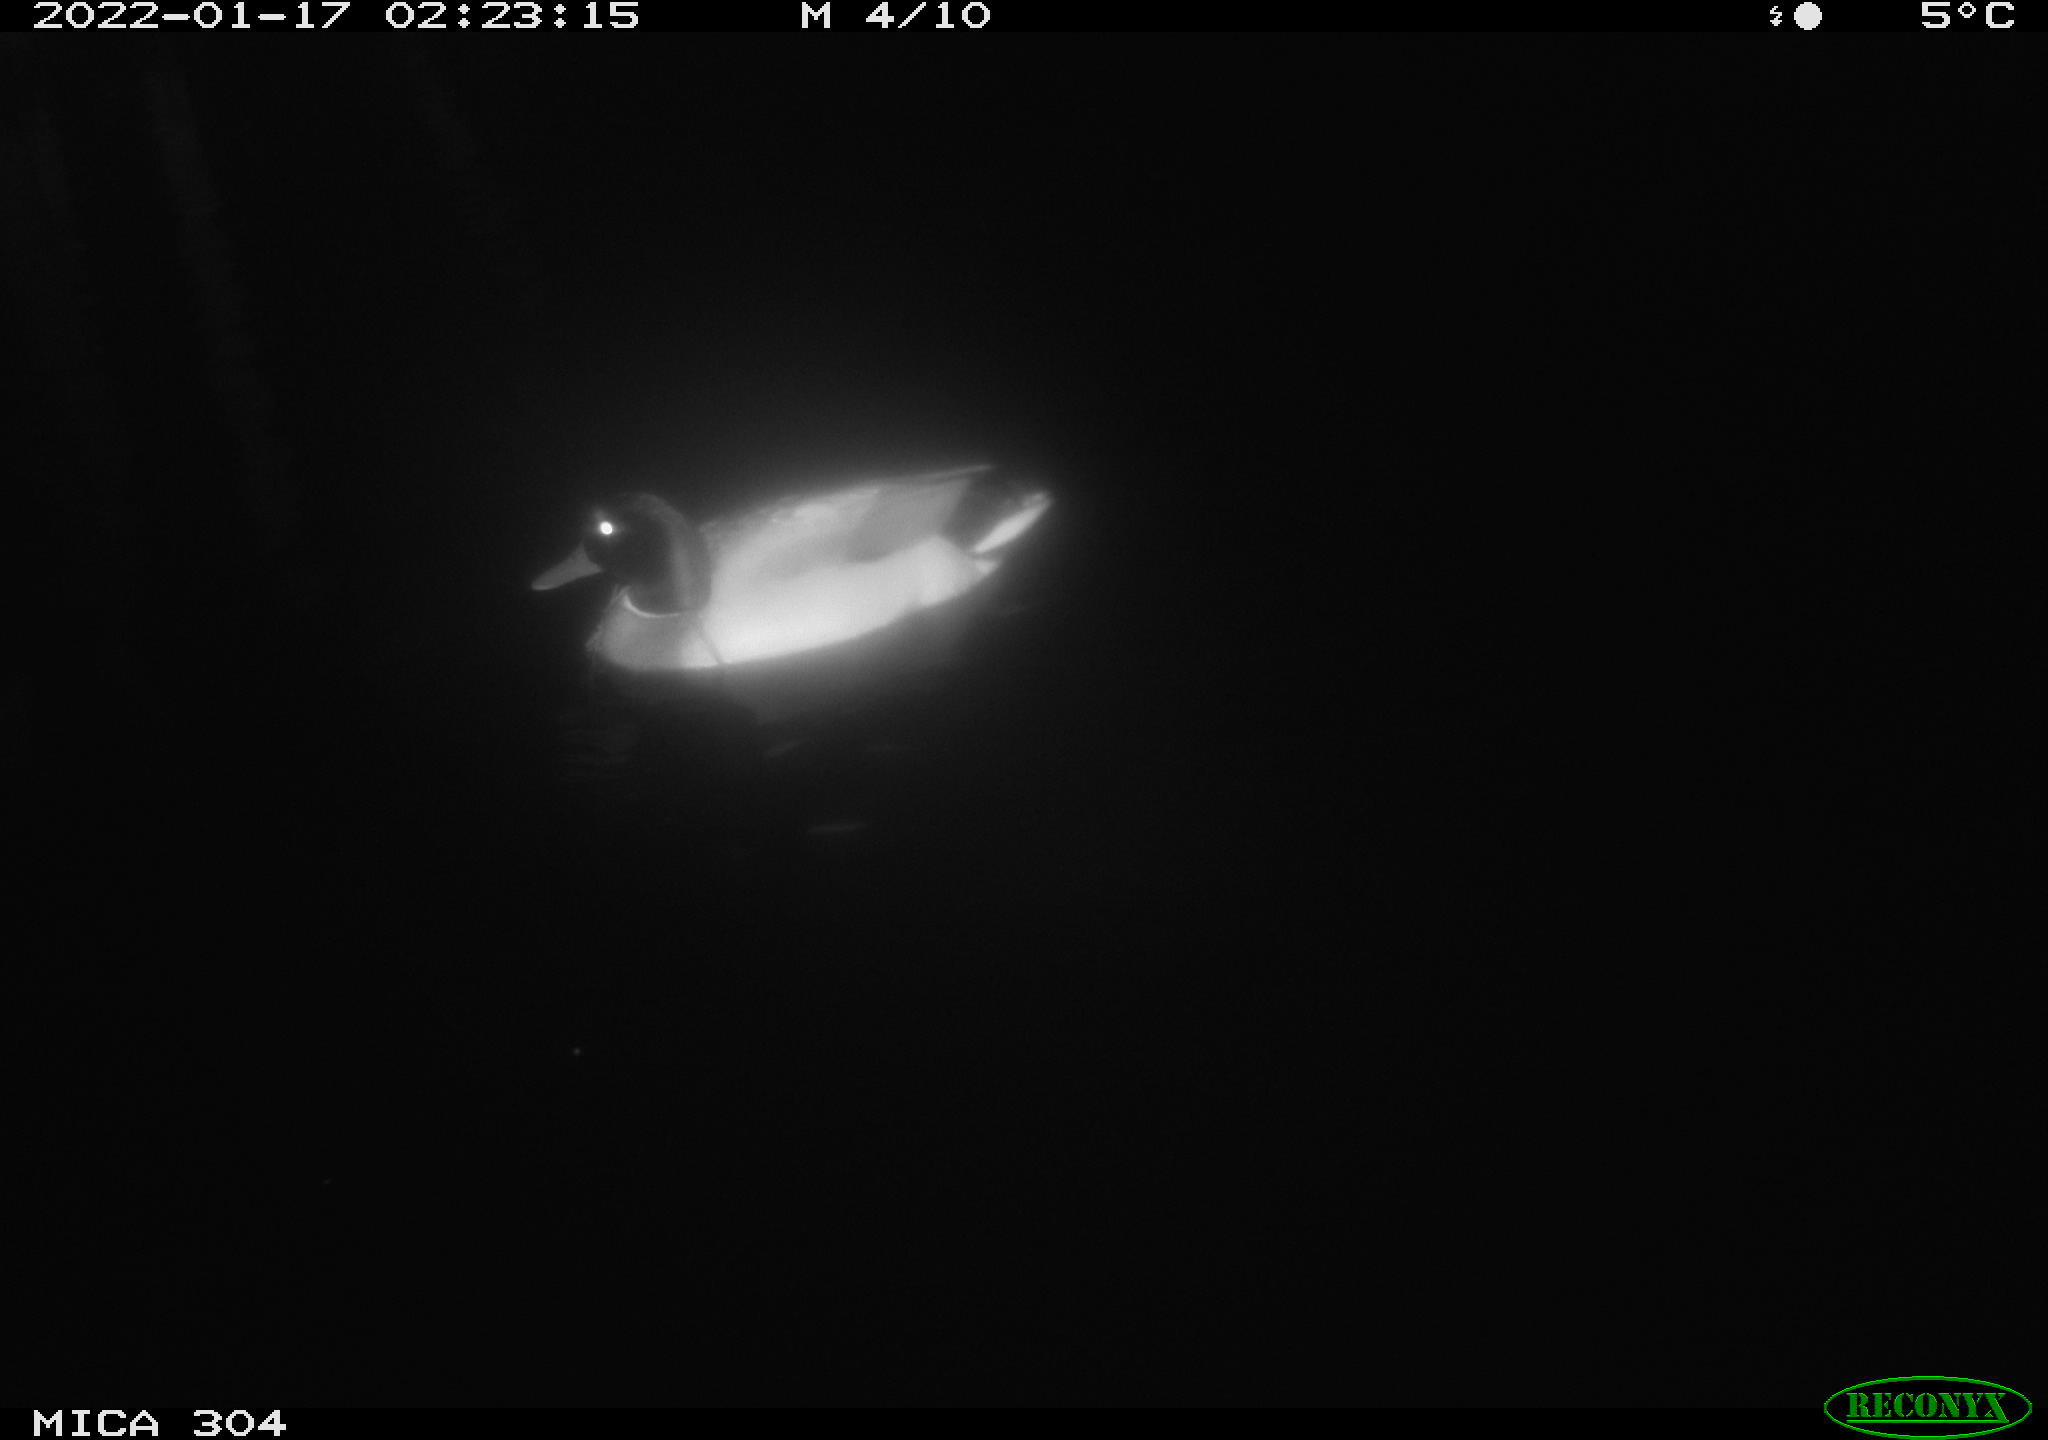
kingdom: Animalia
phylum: Chordata
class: Aves
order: Gruiformes
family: Rallidae
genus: Gallinula
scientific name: Gallinula chloropus
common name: Common moorhen
